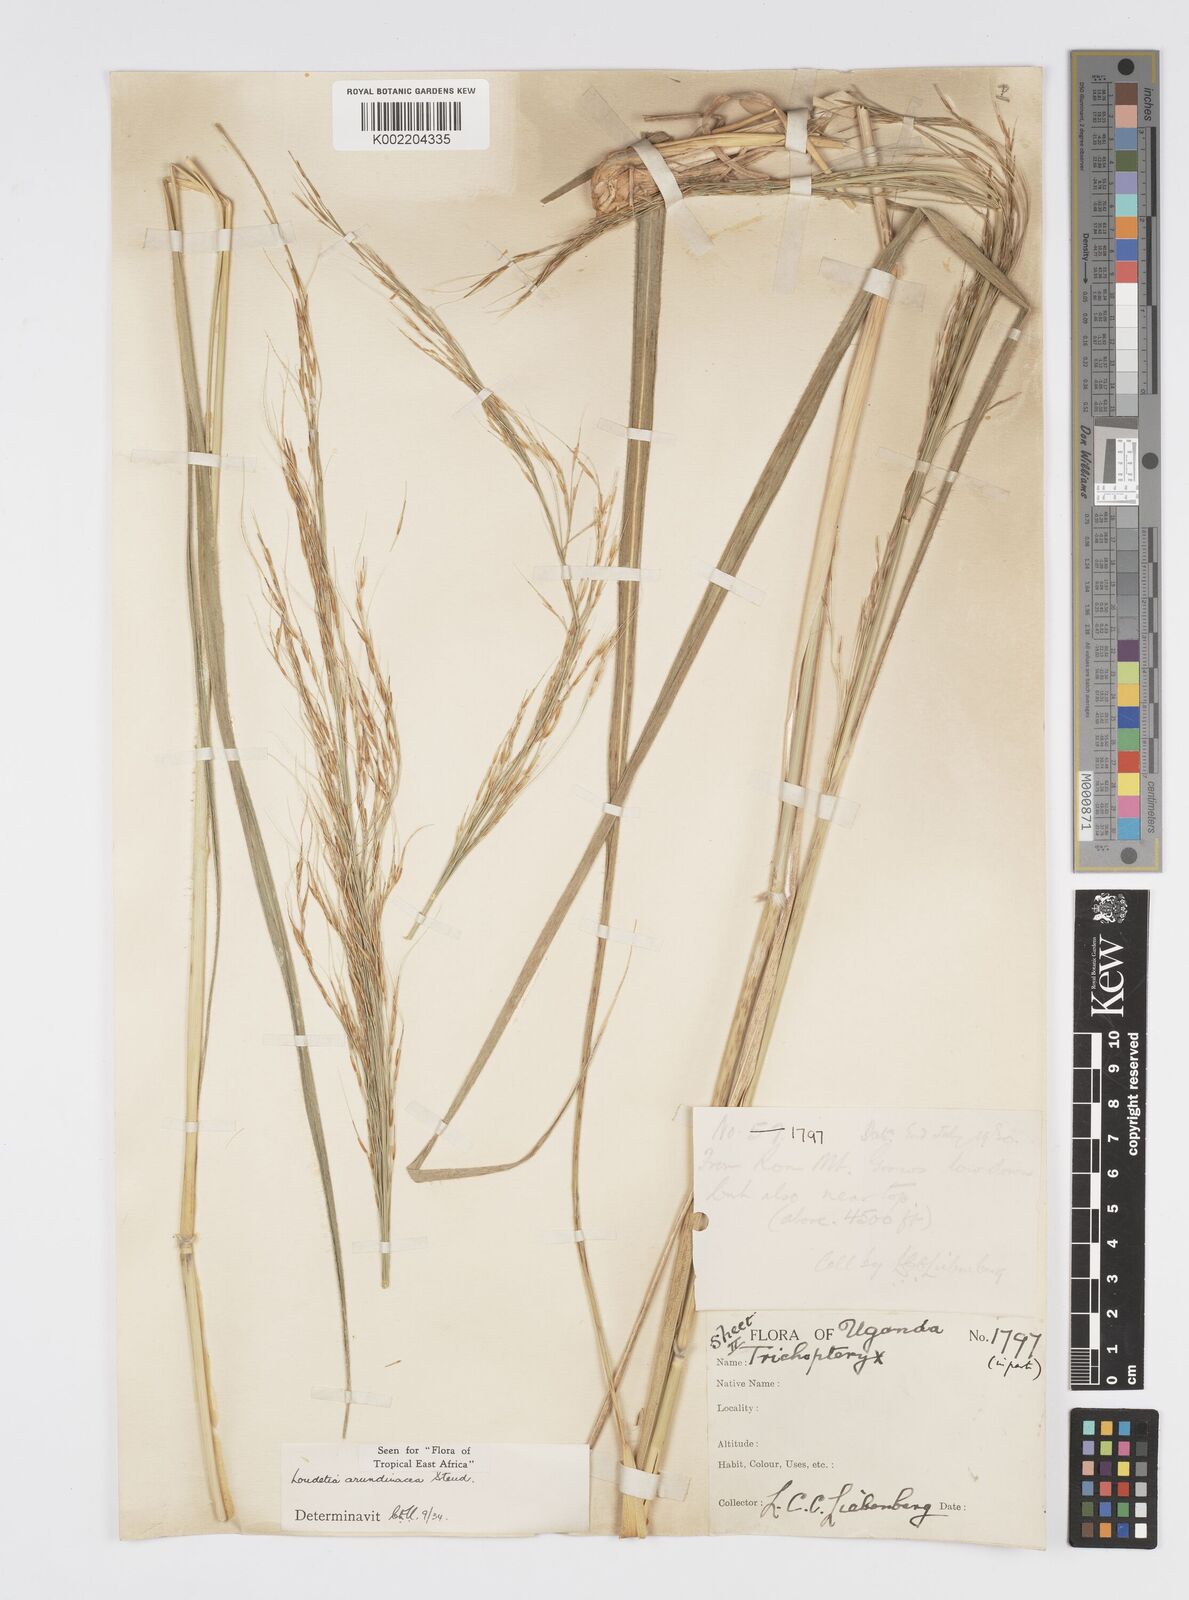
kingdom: Plantae
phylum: Tracheophyta
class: Liliopsida
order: Poales
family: Poaceae
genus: Loudetia
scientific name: Loudetia arundinacea
